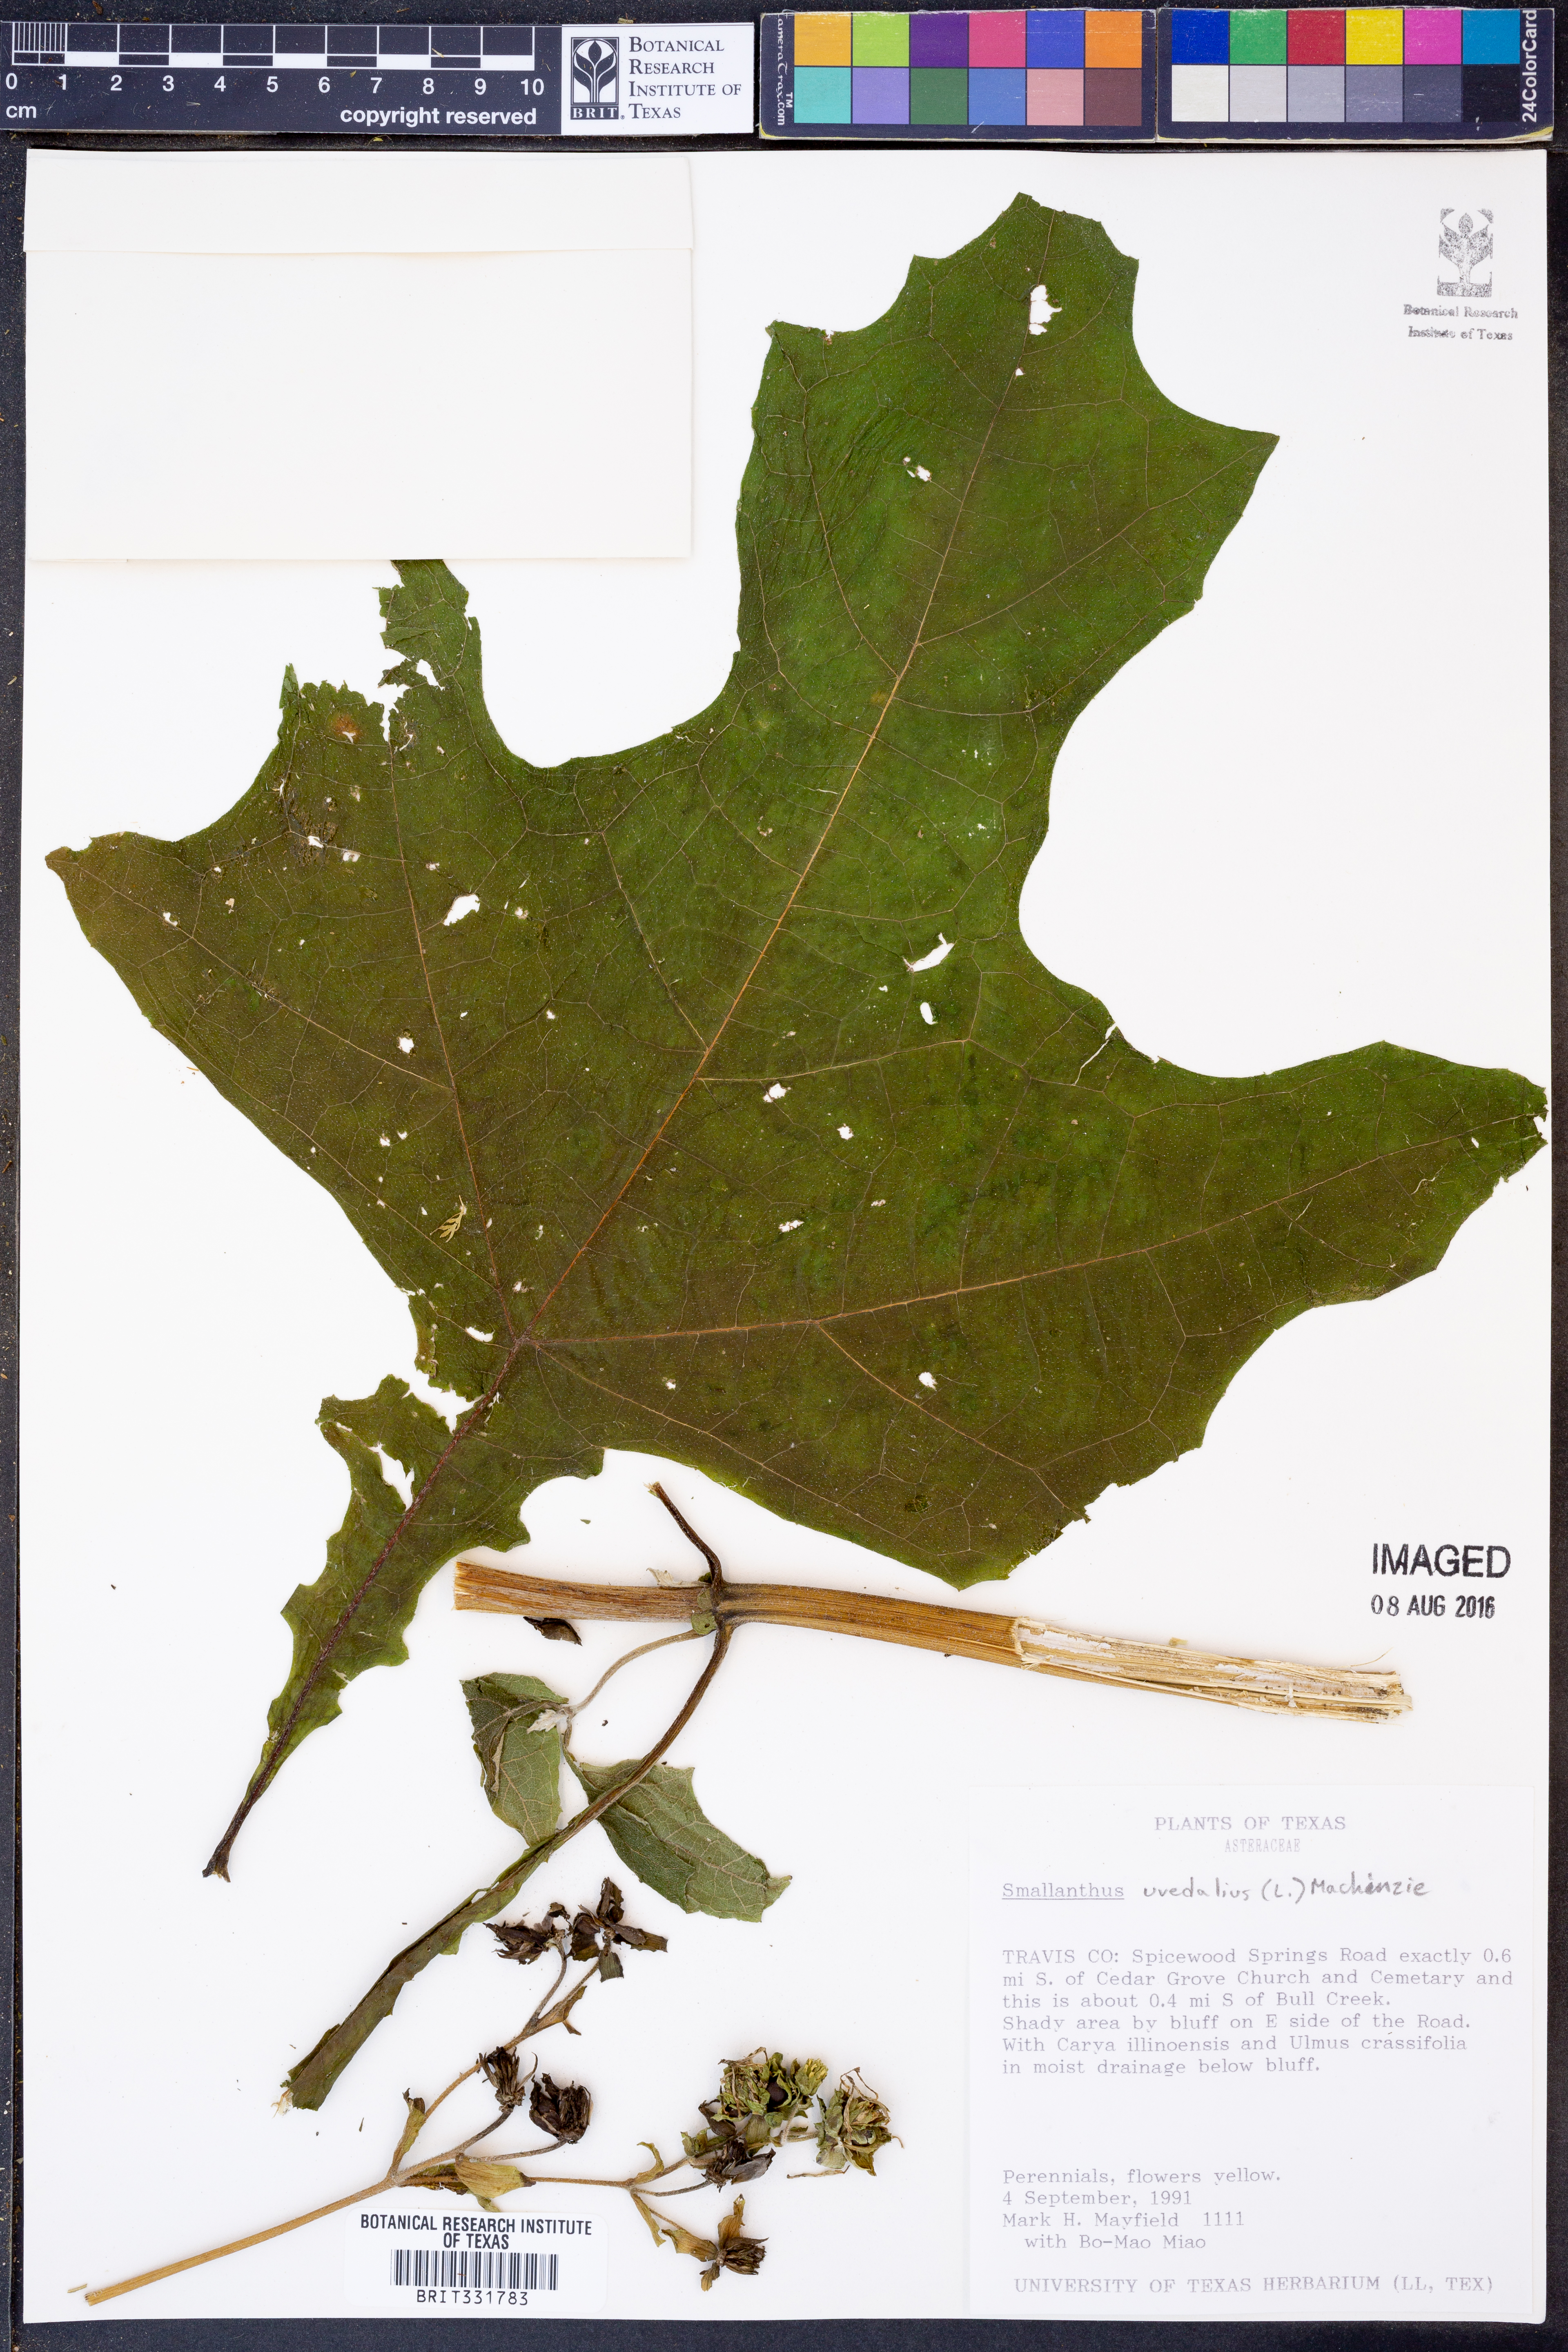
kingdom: Plantae
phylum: Tracheophyta
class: Magnoliopsida
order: Asterales
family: Asteraceae
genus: Smallanthus
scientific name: Smallanthus uvedalia
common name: Bear's-foot
